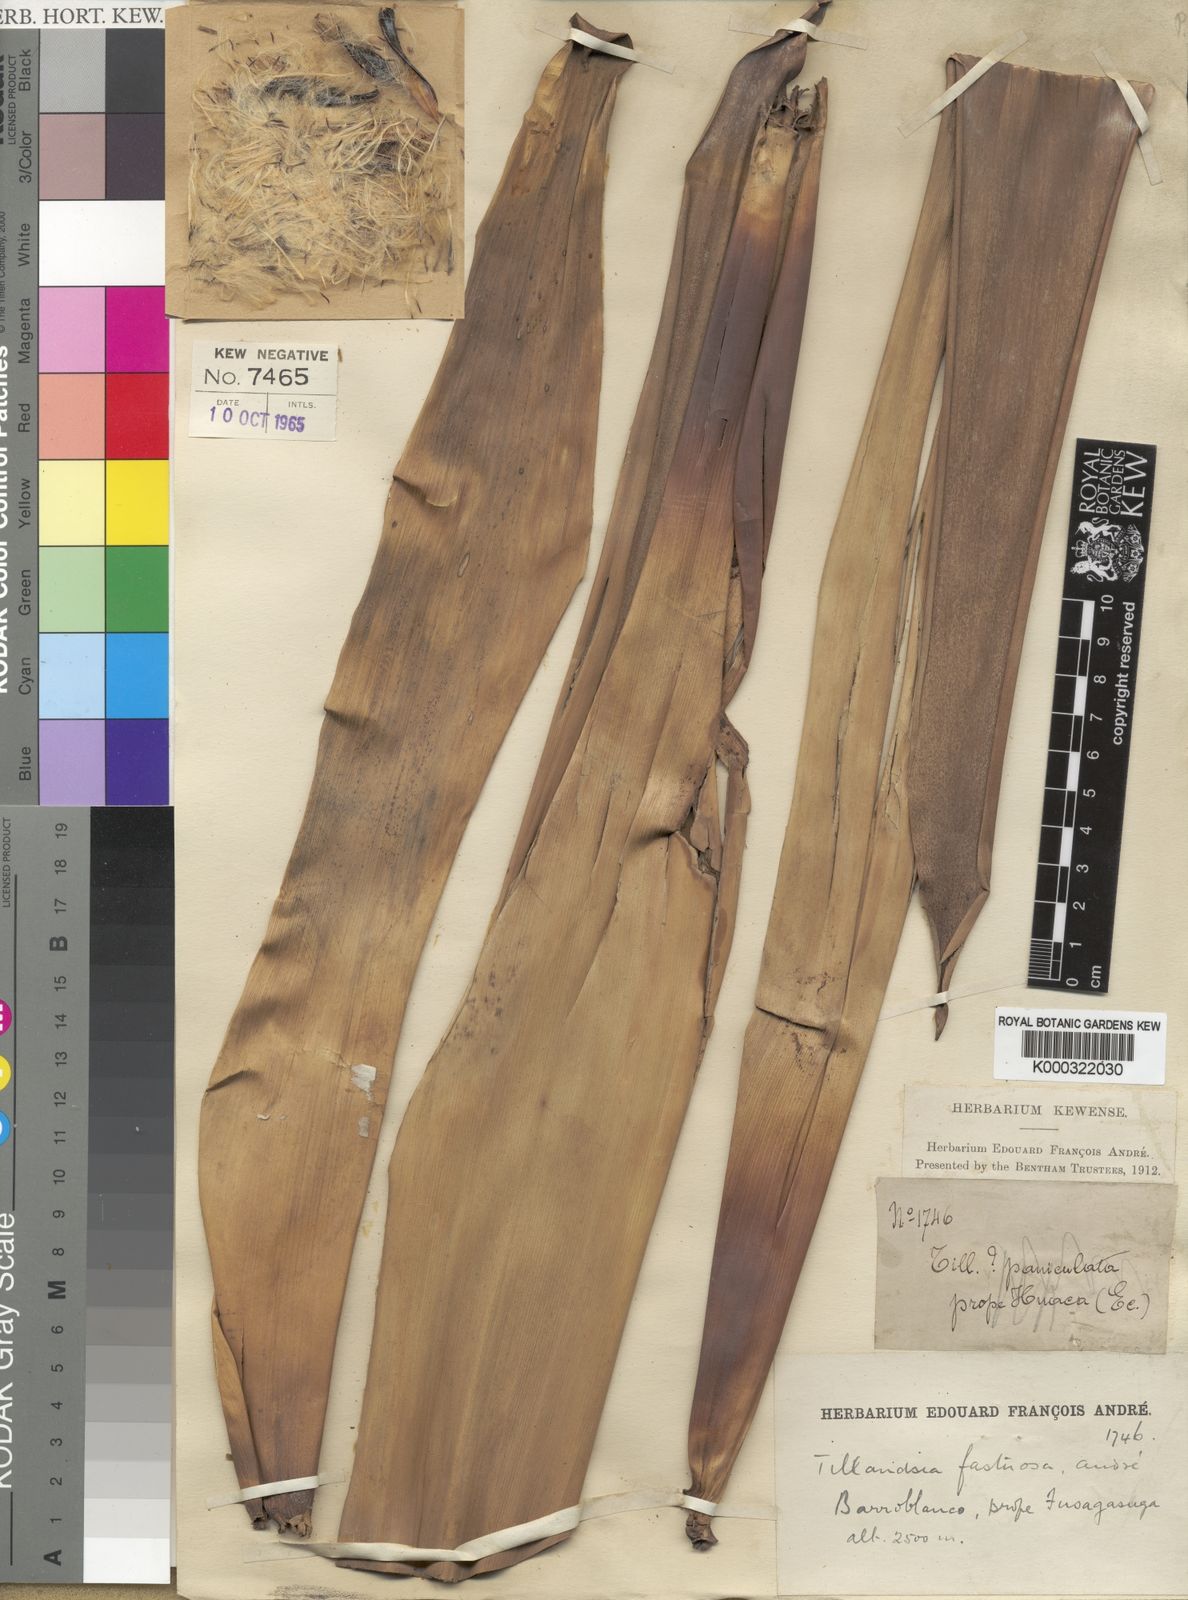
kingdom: Plantae
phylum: Tracheophyta
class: Liliopsida
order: Poales
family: Bromeliaceae
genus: Tillandsia
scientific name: Tillandsia
